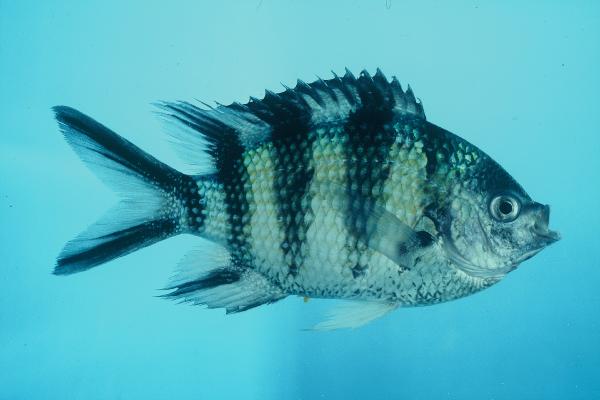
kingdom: Animalia
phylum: Chordata
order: Perciformes
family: Pomacentridae
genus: Abudefduf
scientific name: Abudefduf sexfasciatus
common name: Scissortail sergeant
